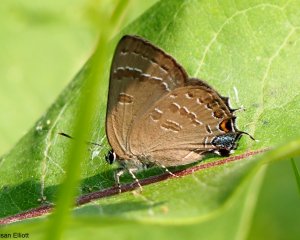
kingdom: Animalia
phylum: Arthropoda
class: Insecta
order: Lepidoptera
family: Lycaenidae
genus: Satyrium
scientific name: Satyrium
